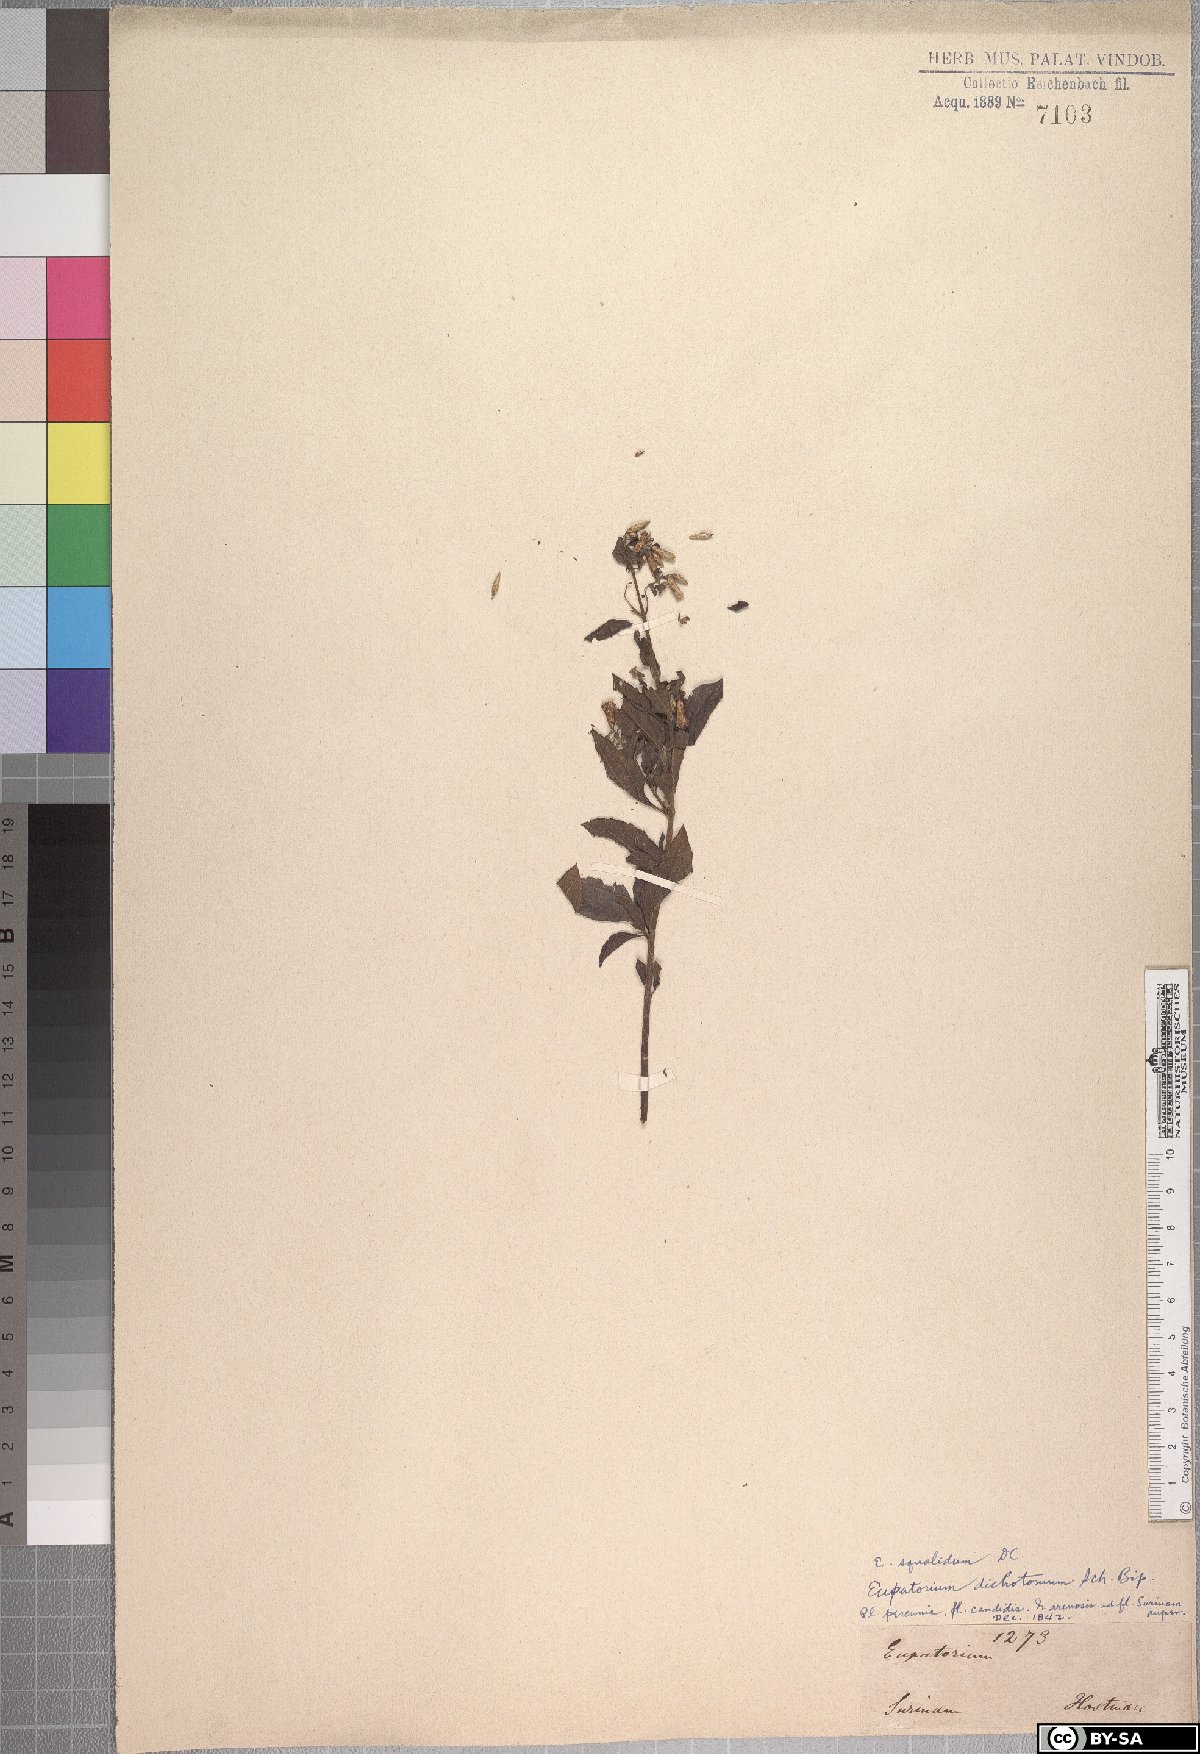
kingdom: Plantae
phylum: Tracheophyta
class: Magnoliopsida
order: Asterales
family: Asteraceae
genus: Chromolaena
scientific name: Chromolaena squalida
